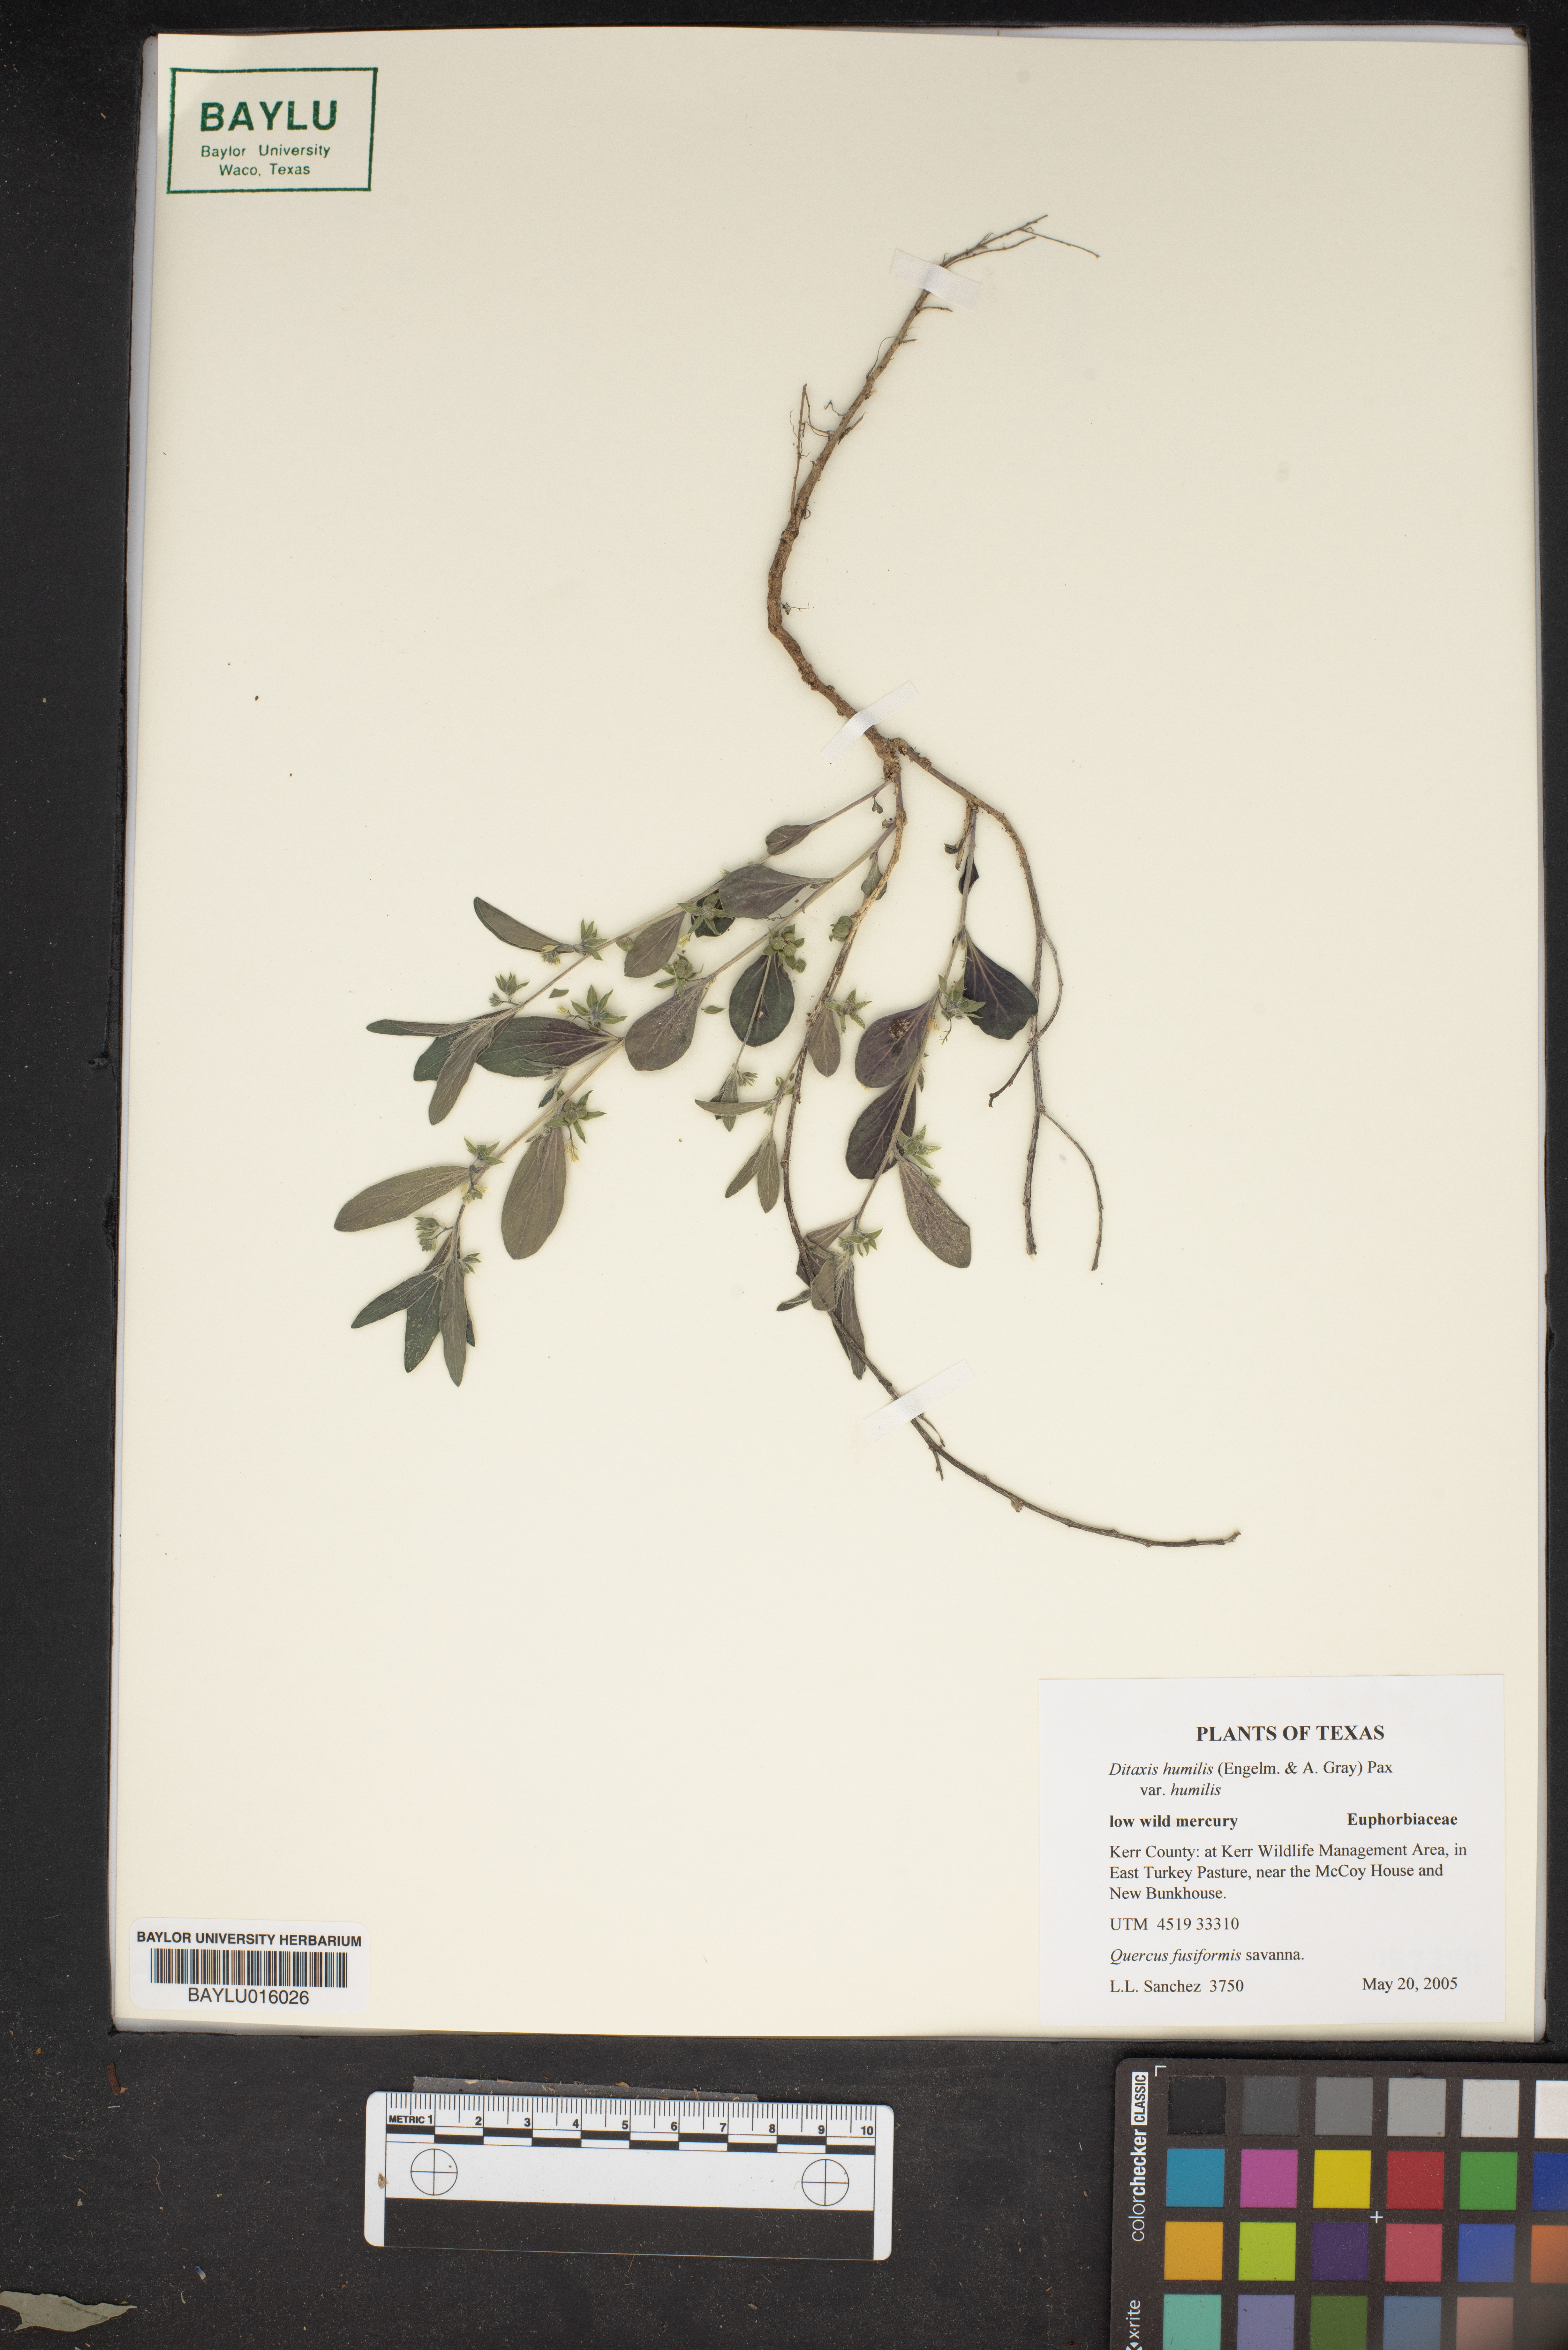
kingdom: Plantae
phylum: Tracheophyta
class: Magnoliopsida
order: Malpighiales
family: Euphorbiaceae
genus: Ditaxis
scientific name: Ditaxis humilis
